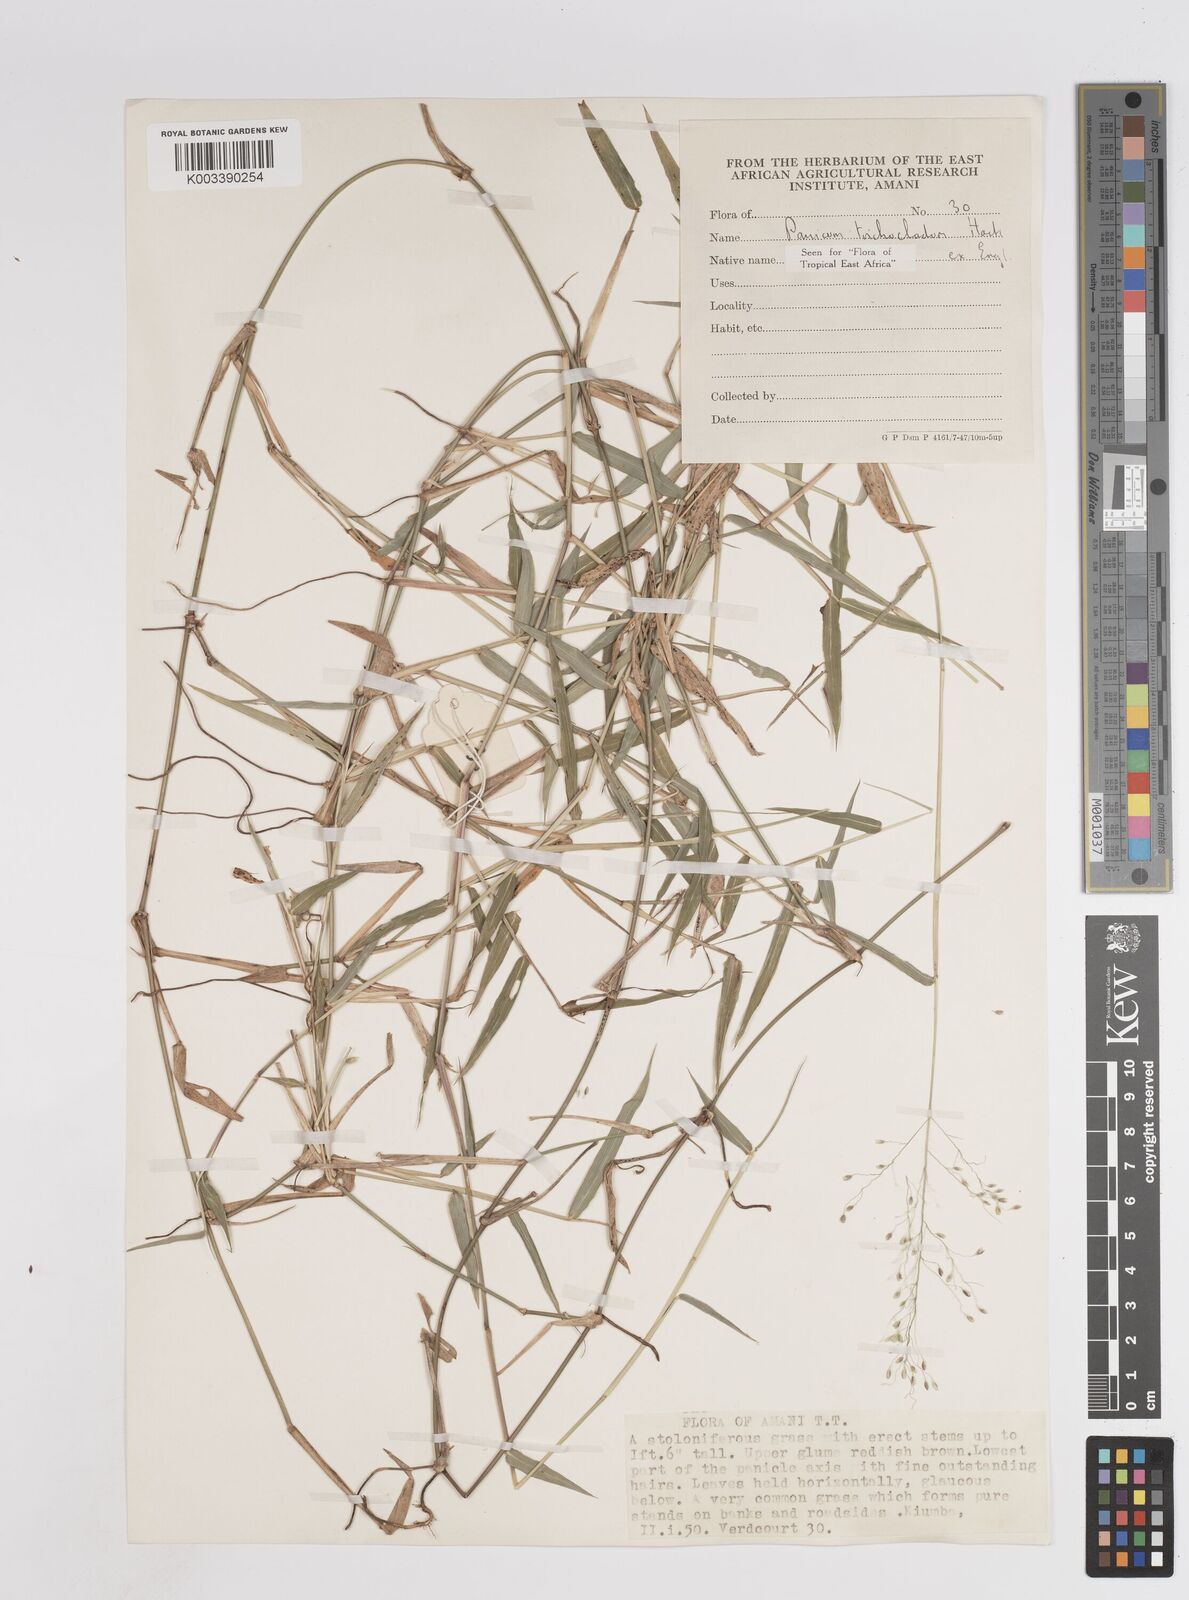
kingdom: Plantae
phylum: Tracheophyta
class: Liliopsida
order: Poales
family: Poaceae
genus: Panicum
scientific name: Panicum trichocladum
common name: Donkey grass
